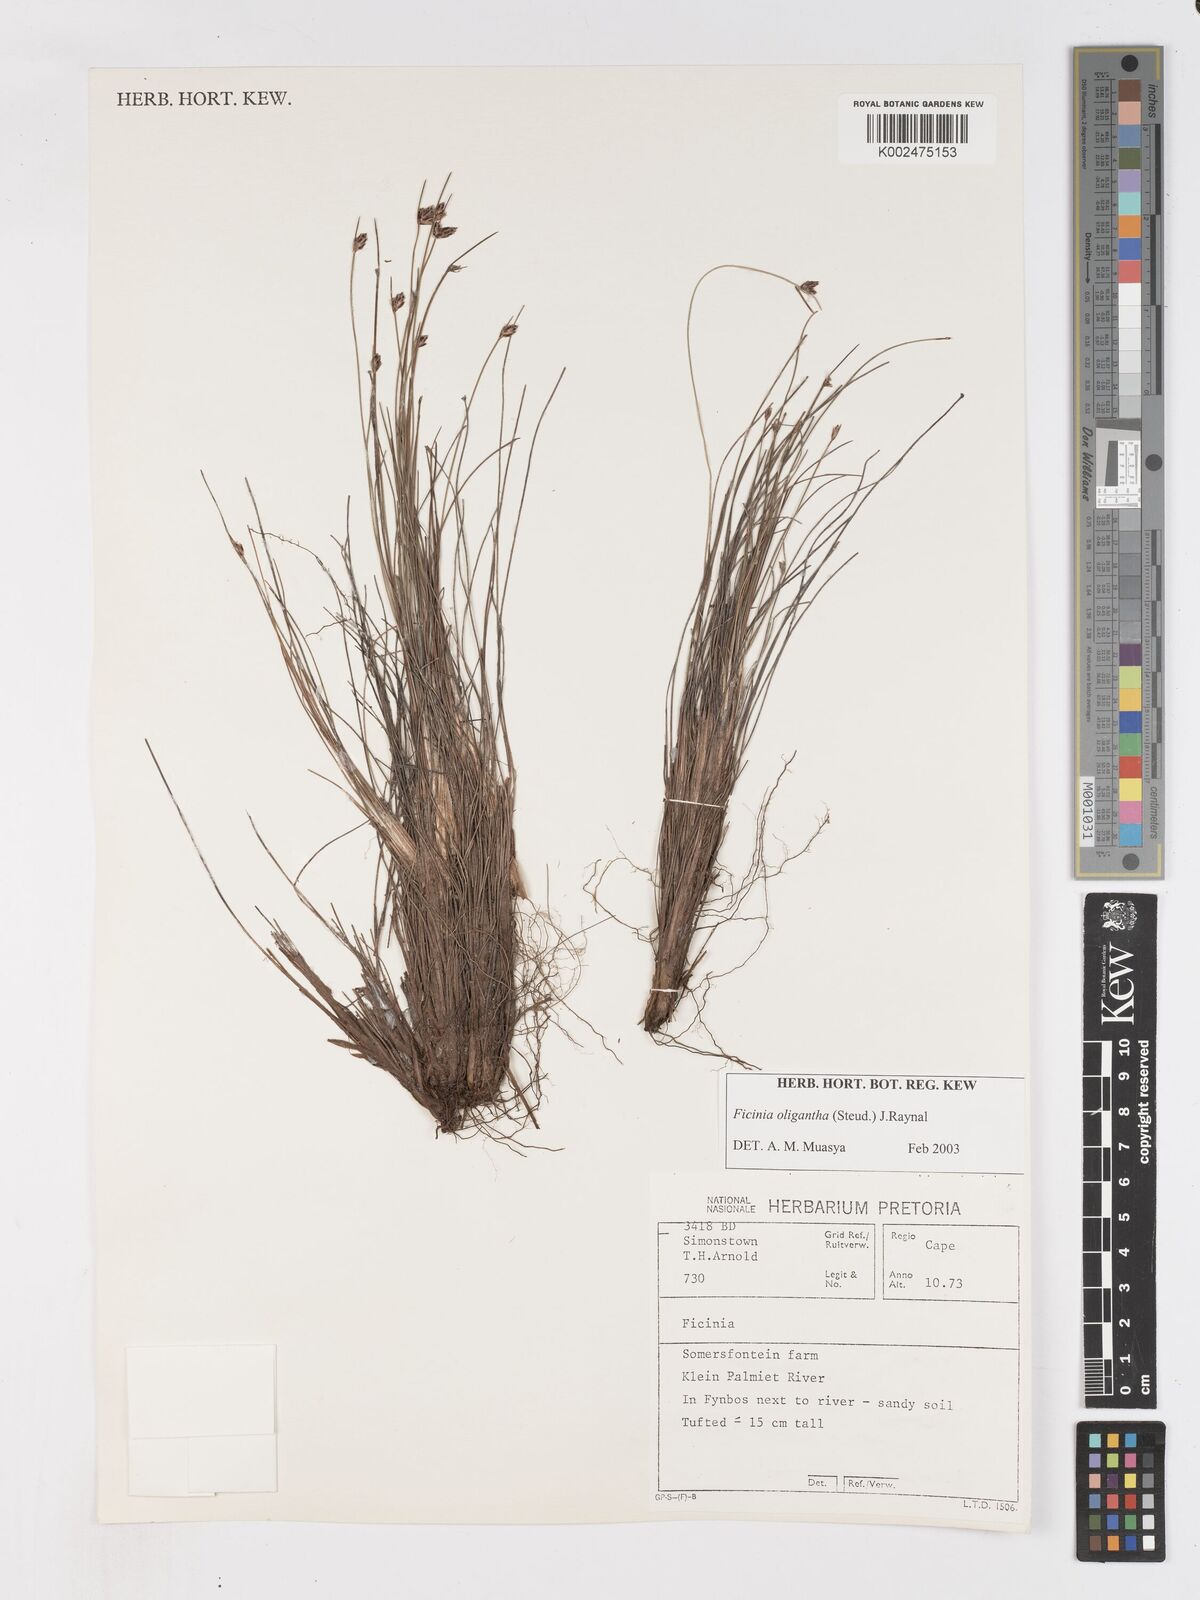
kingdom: Plantae
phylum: Tracheophyta
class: Liliopsida
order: Poales
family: Cyperaceae
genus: Ficinia
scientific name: Ficinia stolonifera
